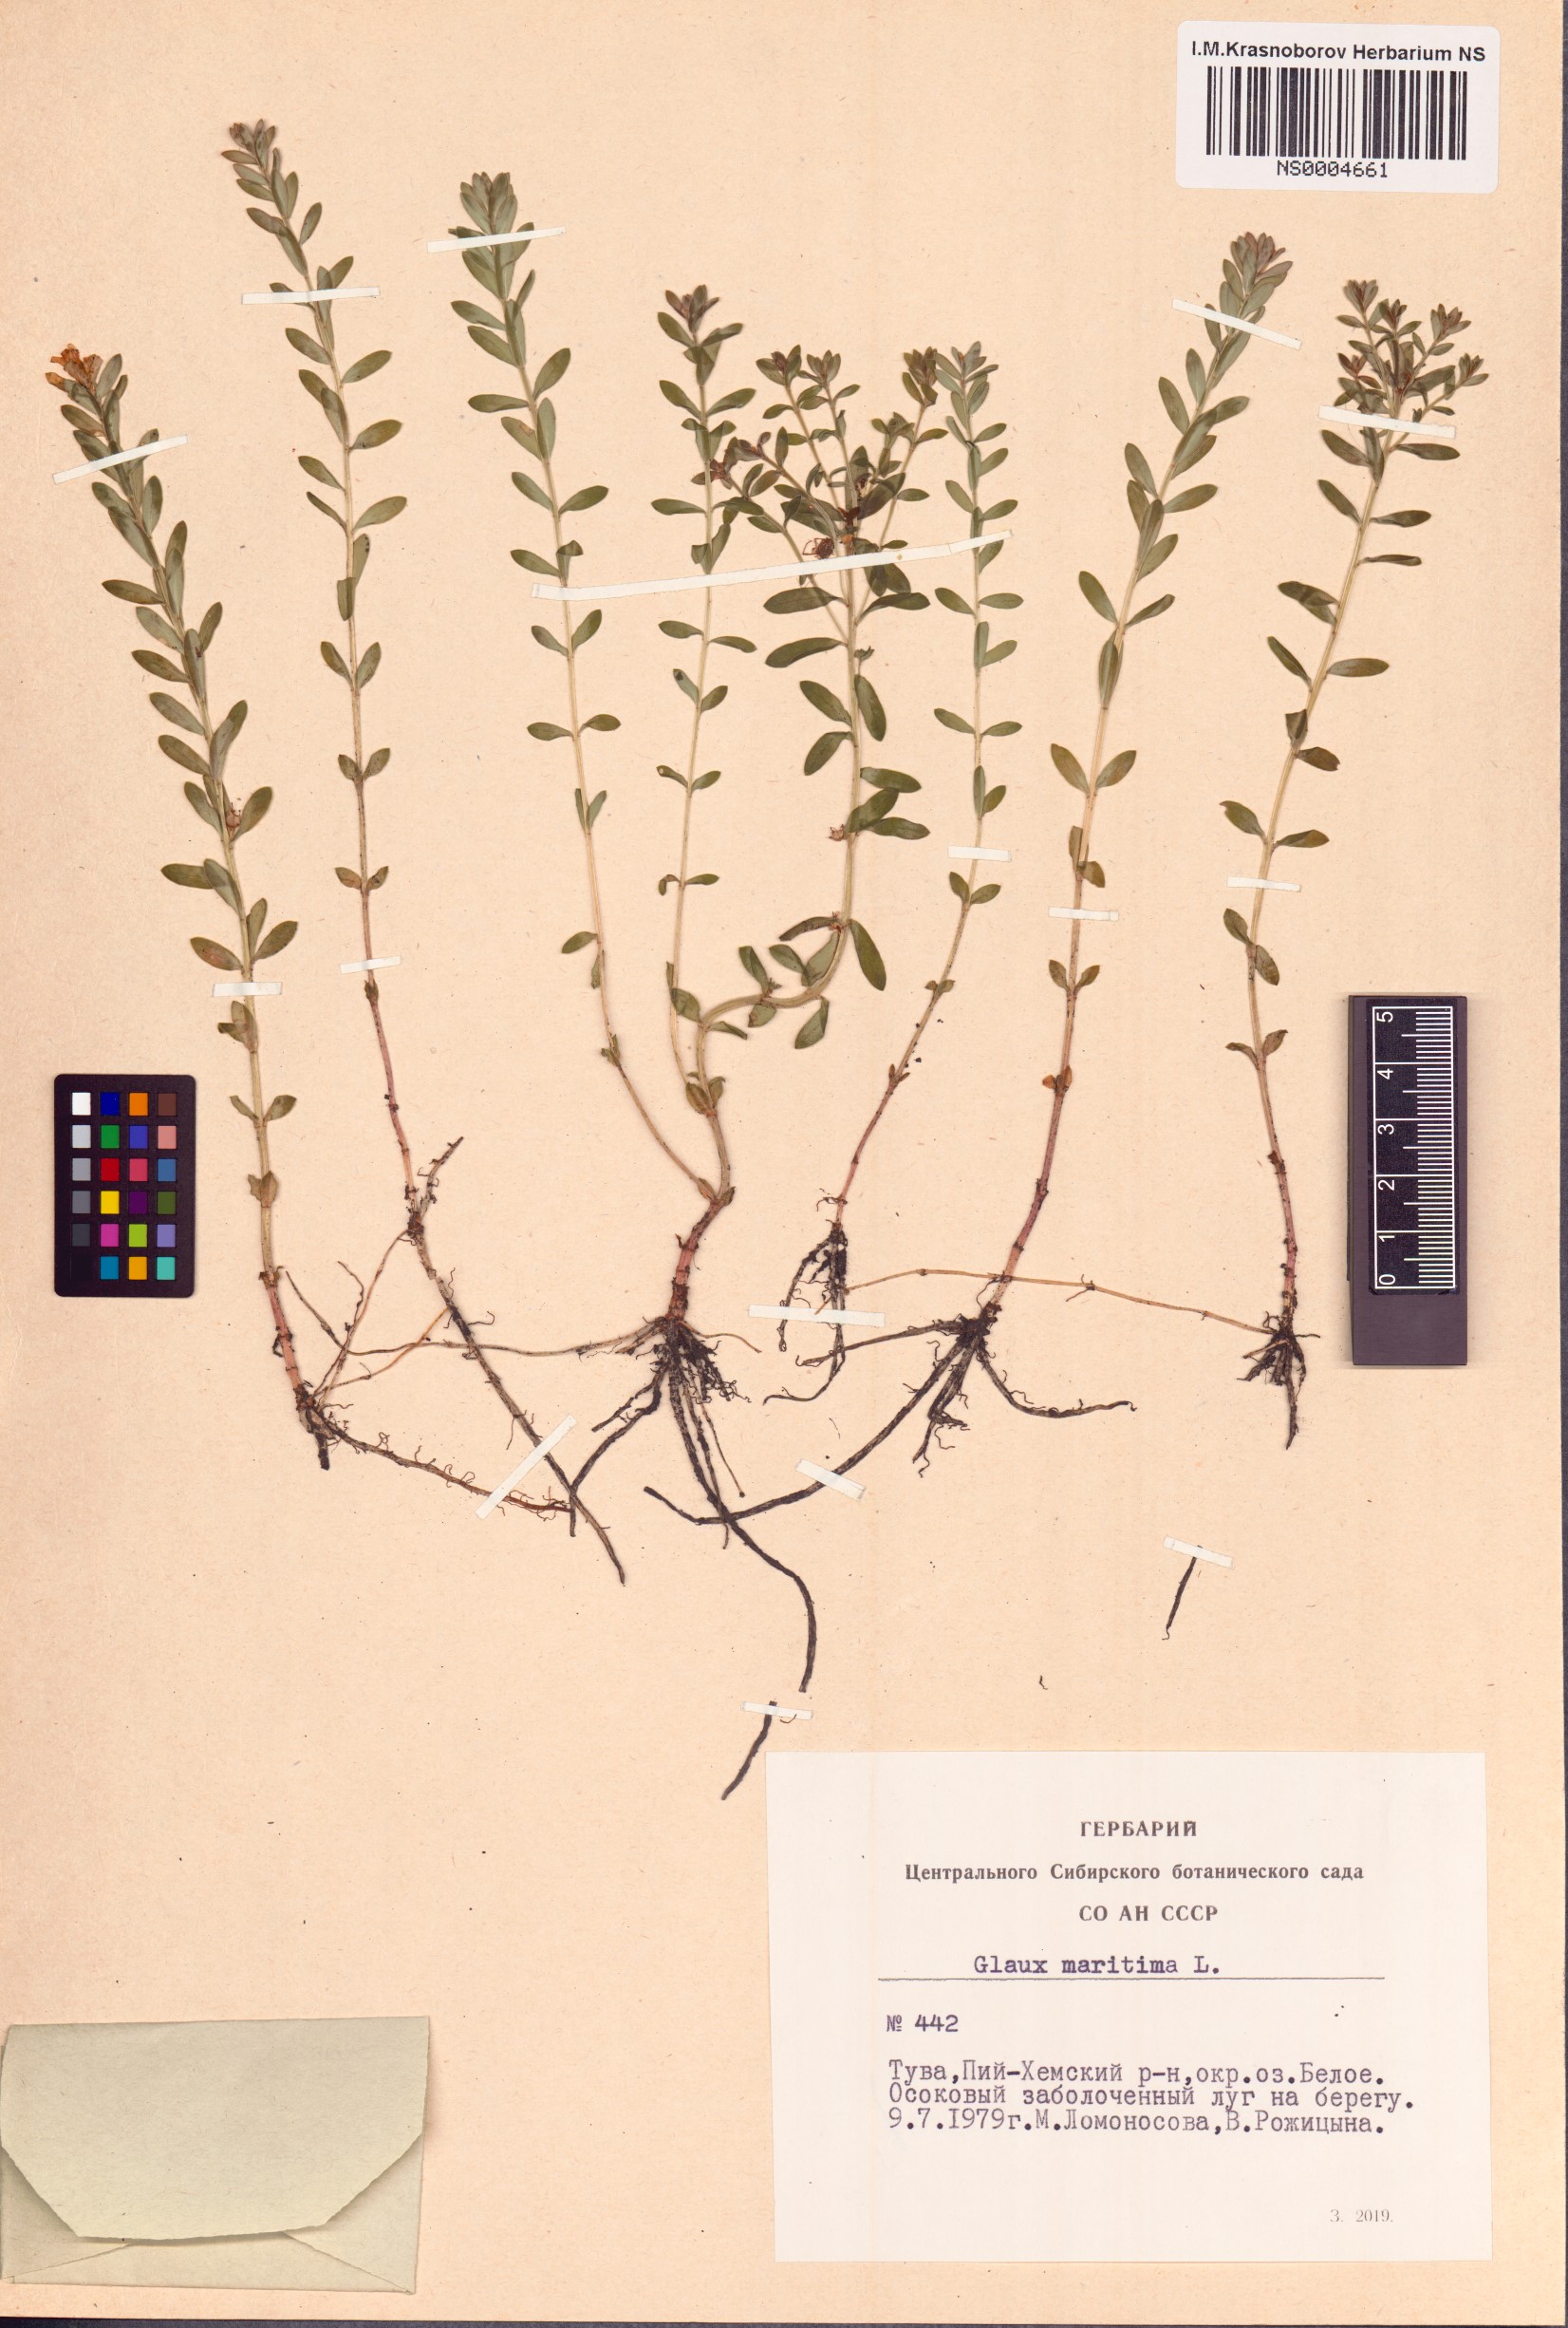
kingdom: Plantae
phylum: Tracheophyta
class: Magnoliopsida
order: Ericales
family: Primulaceae
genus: Lysimachia
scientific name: Lysimachia maritima
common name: Sea milkwort
